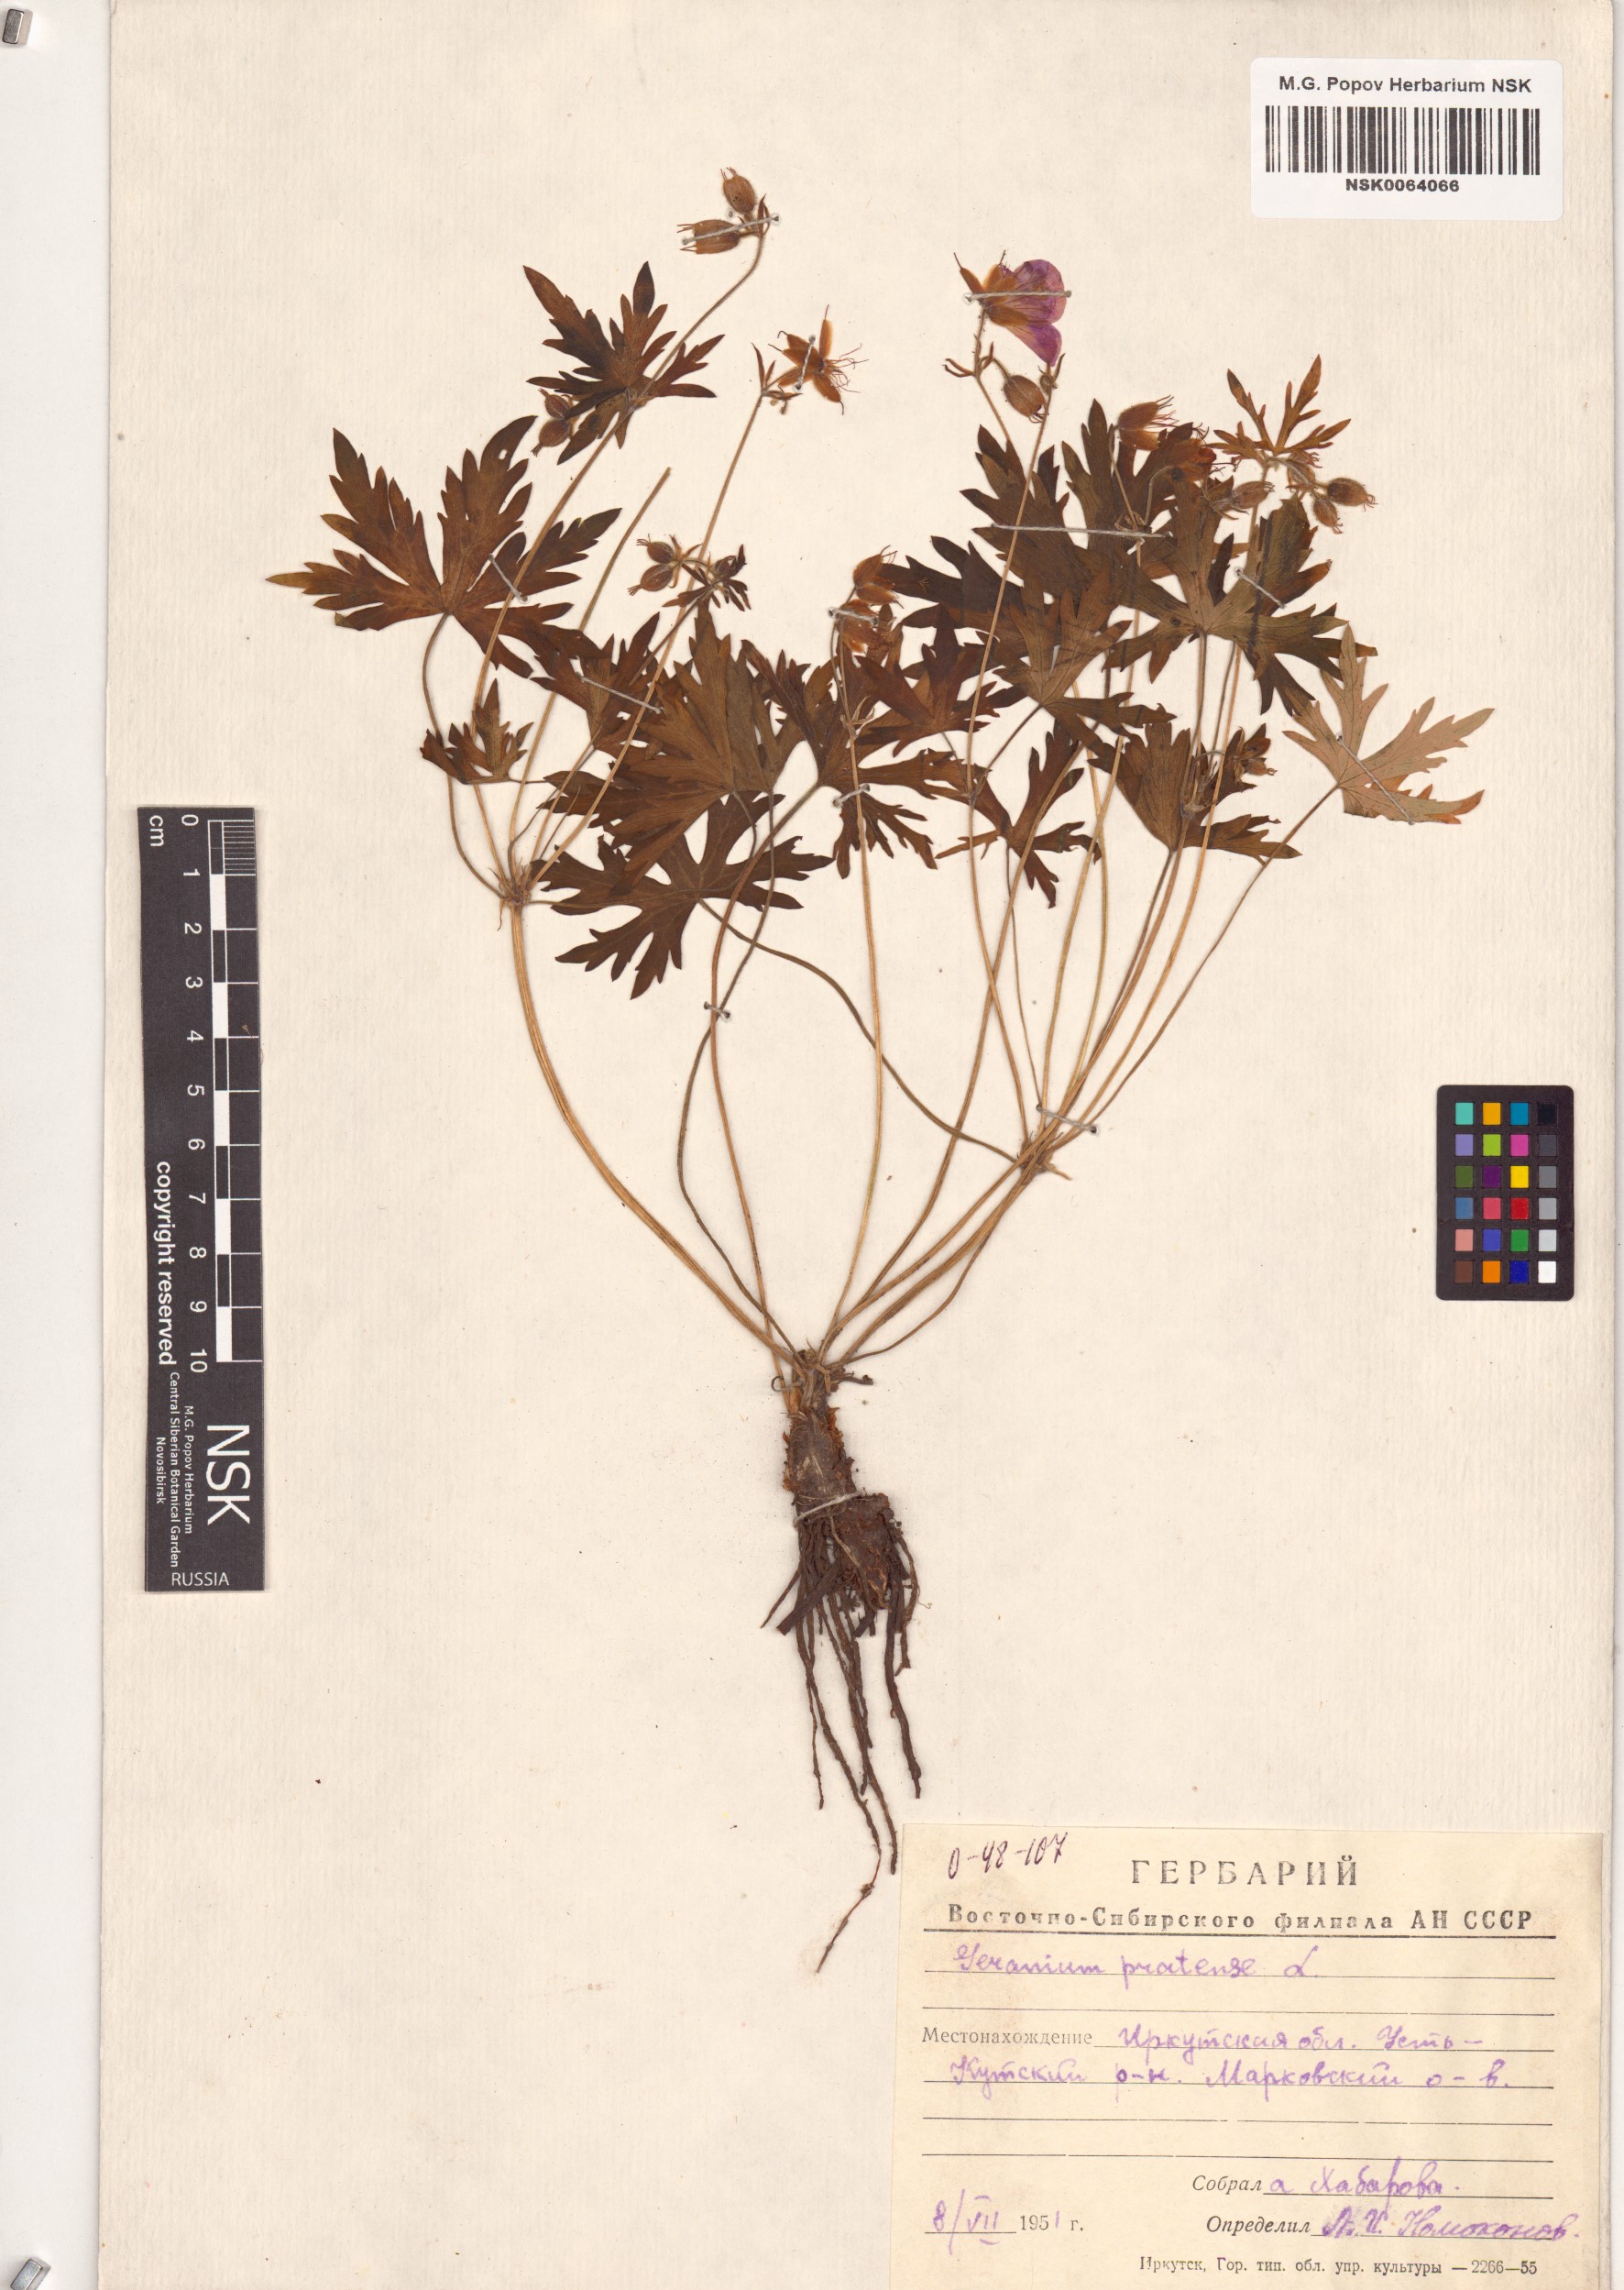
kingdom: Plantae
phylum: Tracheophyta
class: Magnoliopsida
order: Geraniales
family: Geraniaceae
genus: Geranium
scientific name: Geranium pratense
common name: Meadow crane's-bill
